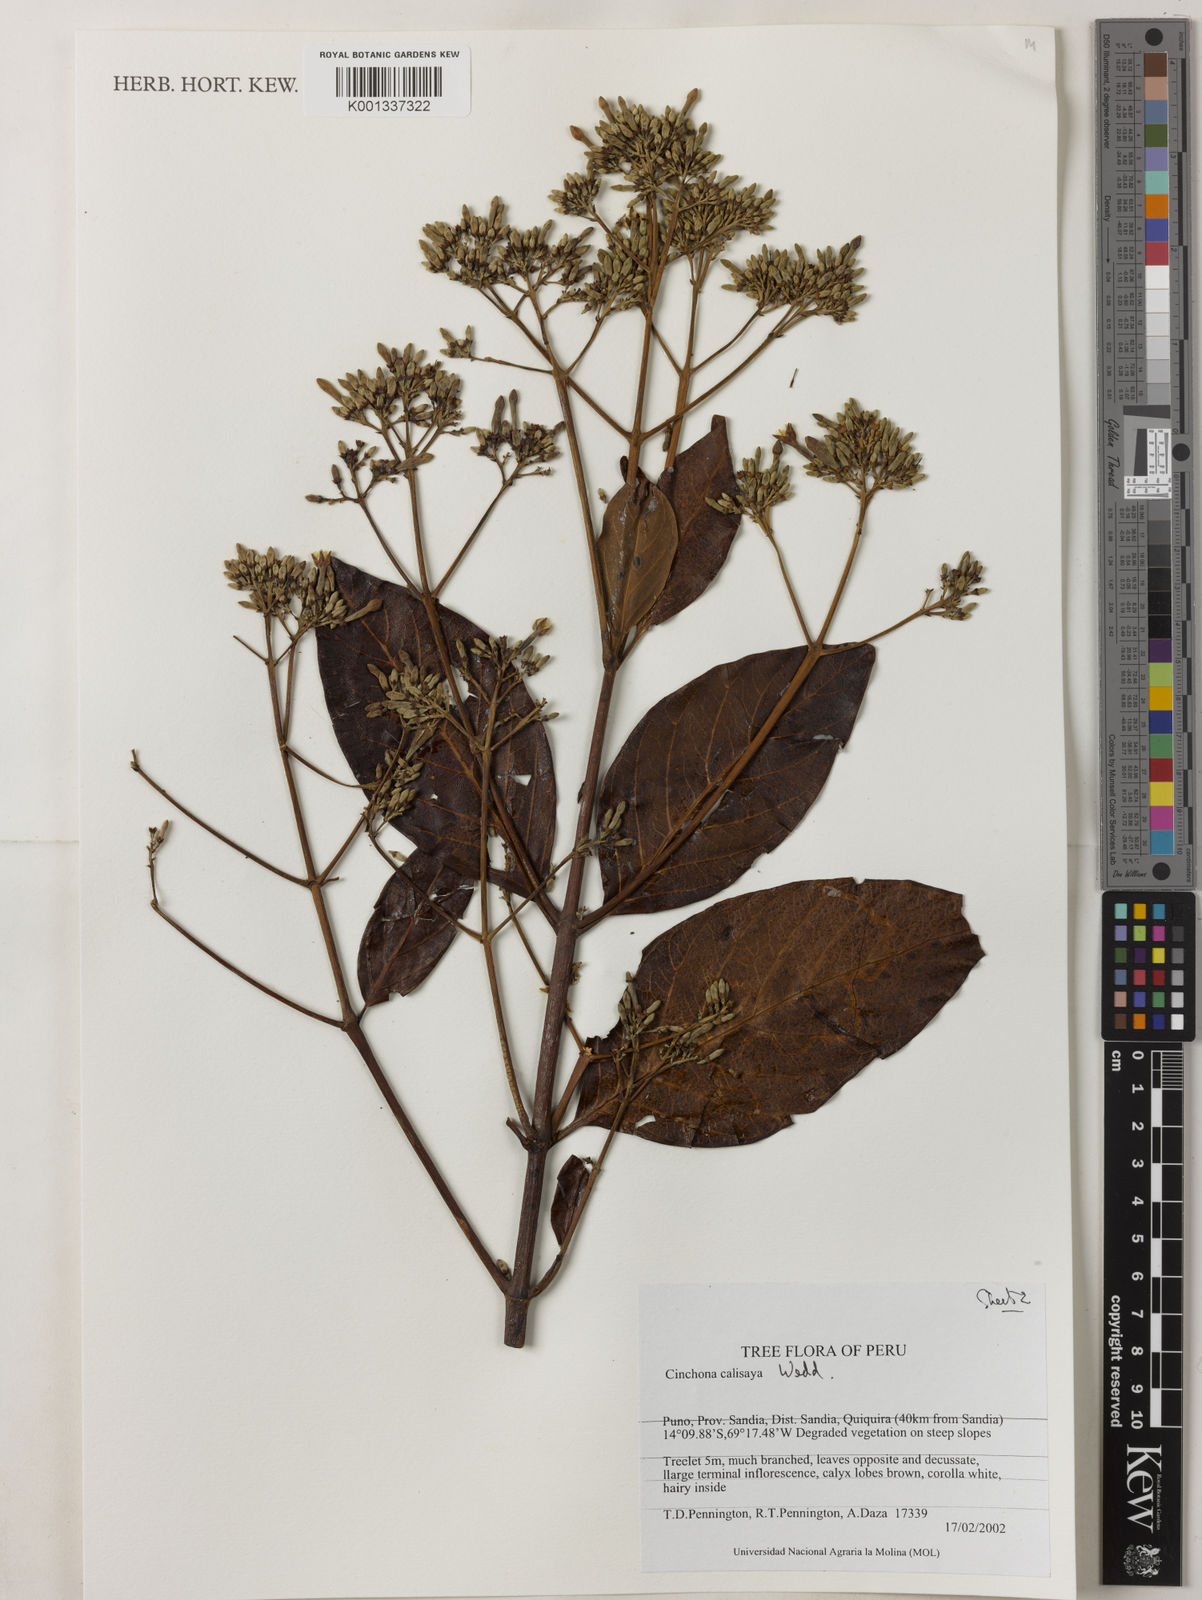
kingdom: Plantae
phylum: Tracheophyta
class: Magnoliopsida
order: Gentianales
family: Rubiaceae
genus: Cinchona
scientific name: Cinchona calisaya
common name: Ledgerbark
